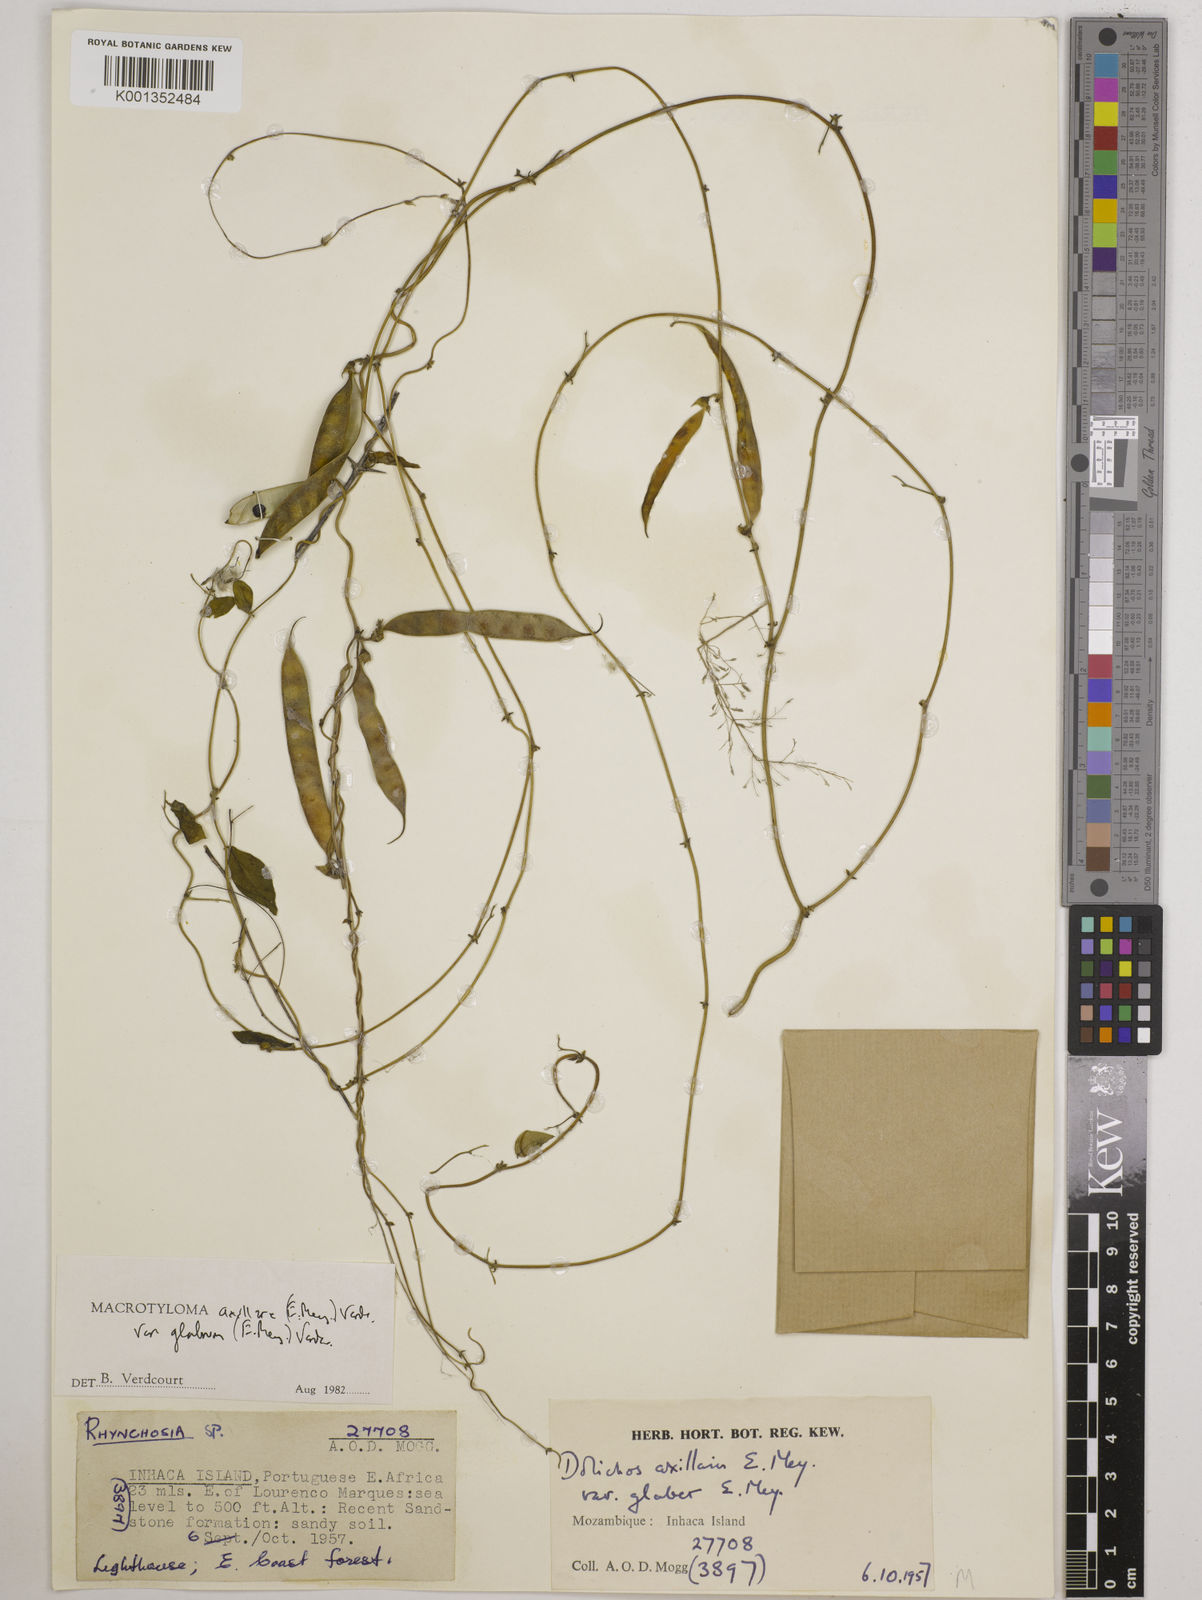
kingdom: Plantae
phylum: Tracheophyta
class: Magnoliopsida
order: Fabales
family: Fabaceae
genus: Macrotyloma
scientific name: Macrotyloma
